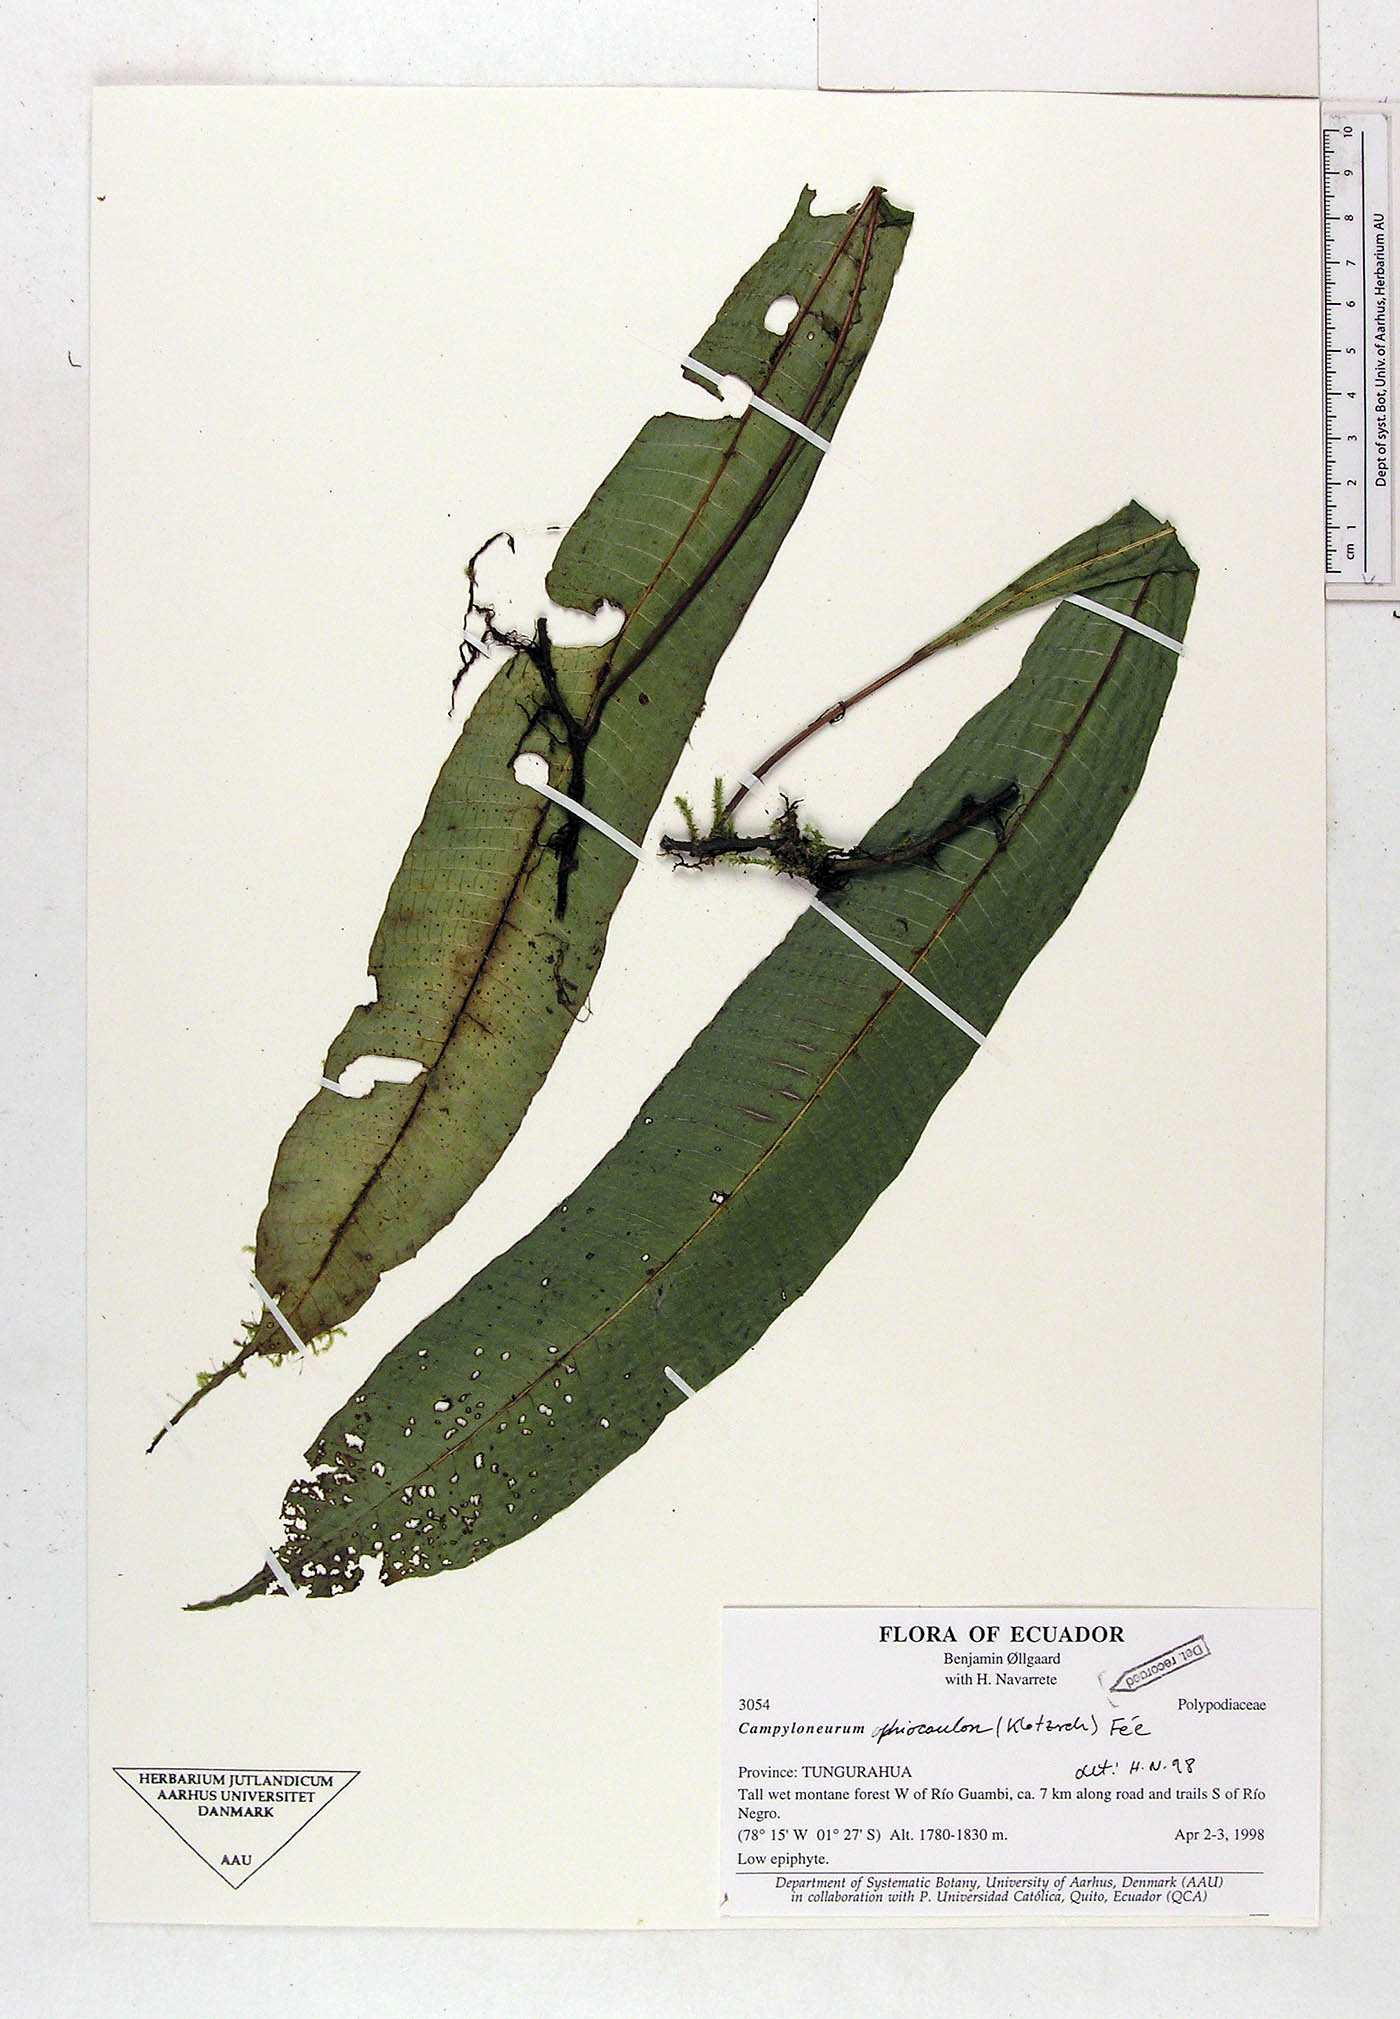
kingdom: Plantae
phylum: Tracheophyta
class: Polypodiopsida
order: Polypodiales
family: Polypodiaceae
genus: Campyloneurum
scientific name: Campyloneurum ophiocaulon
